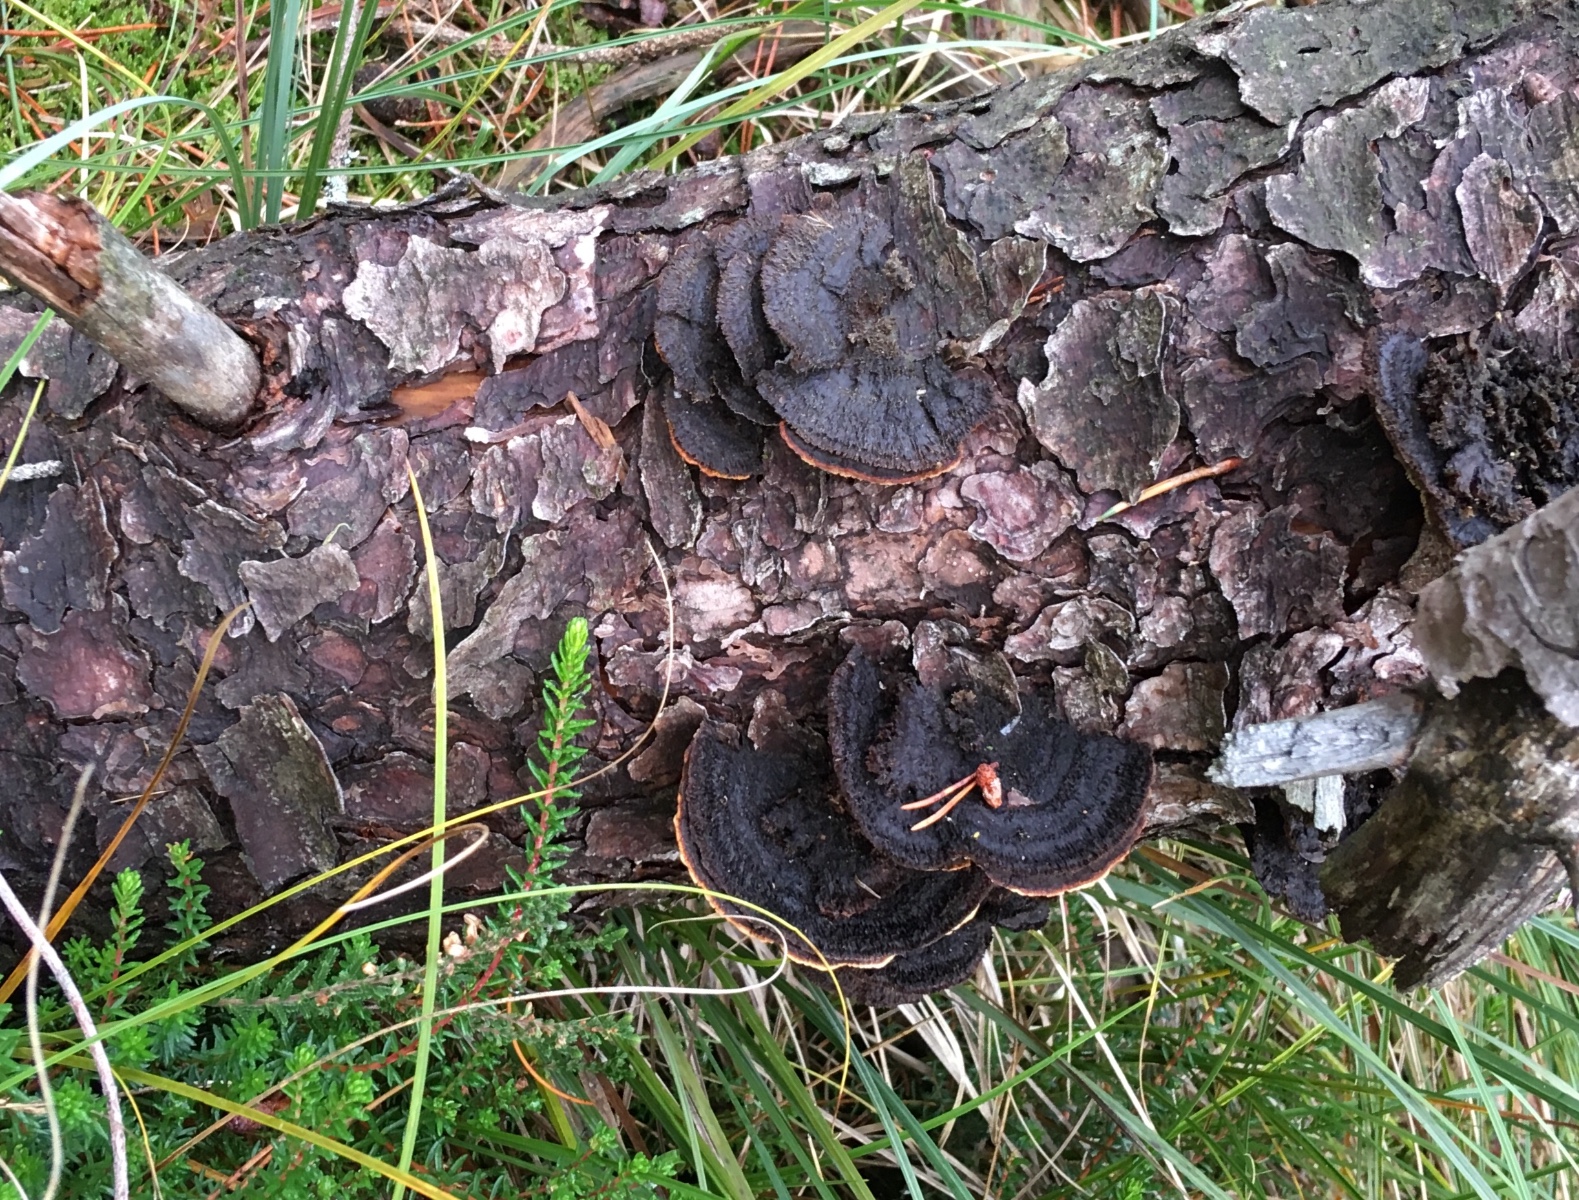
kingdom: Fungi
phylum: Basidiomycota
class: Agaricomycetes
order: Gloeophyllales
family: Gloeophyllaceae
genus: Gloeophyllum
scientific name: Gloeophyllum sepiarium
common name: fyrre-korkhat
